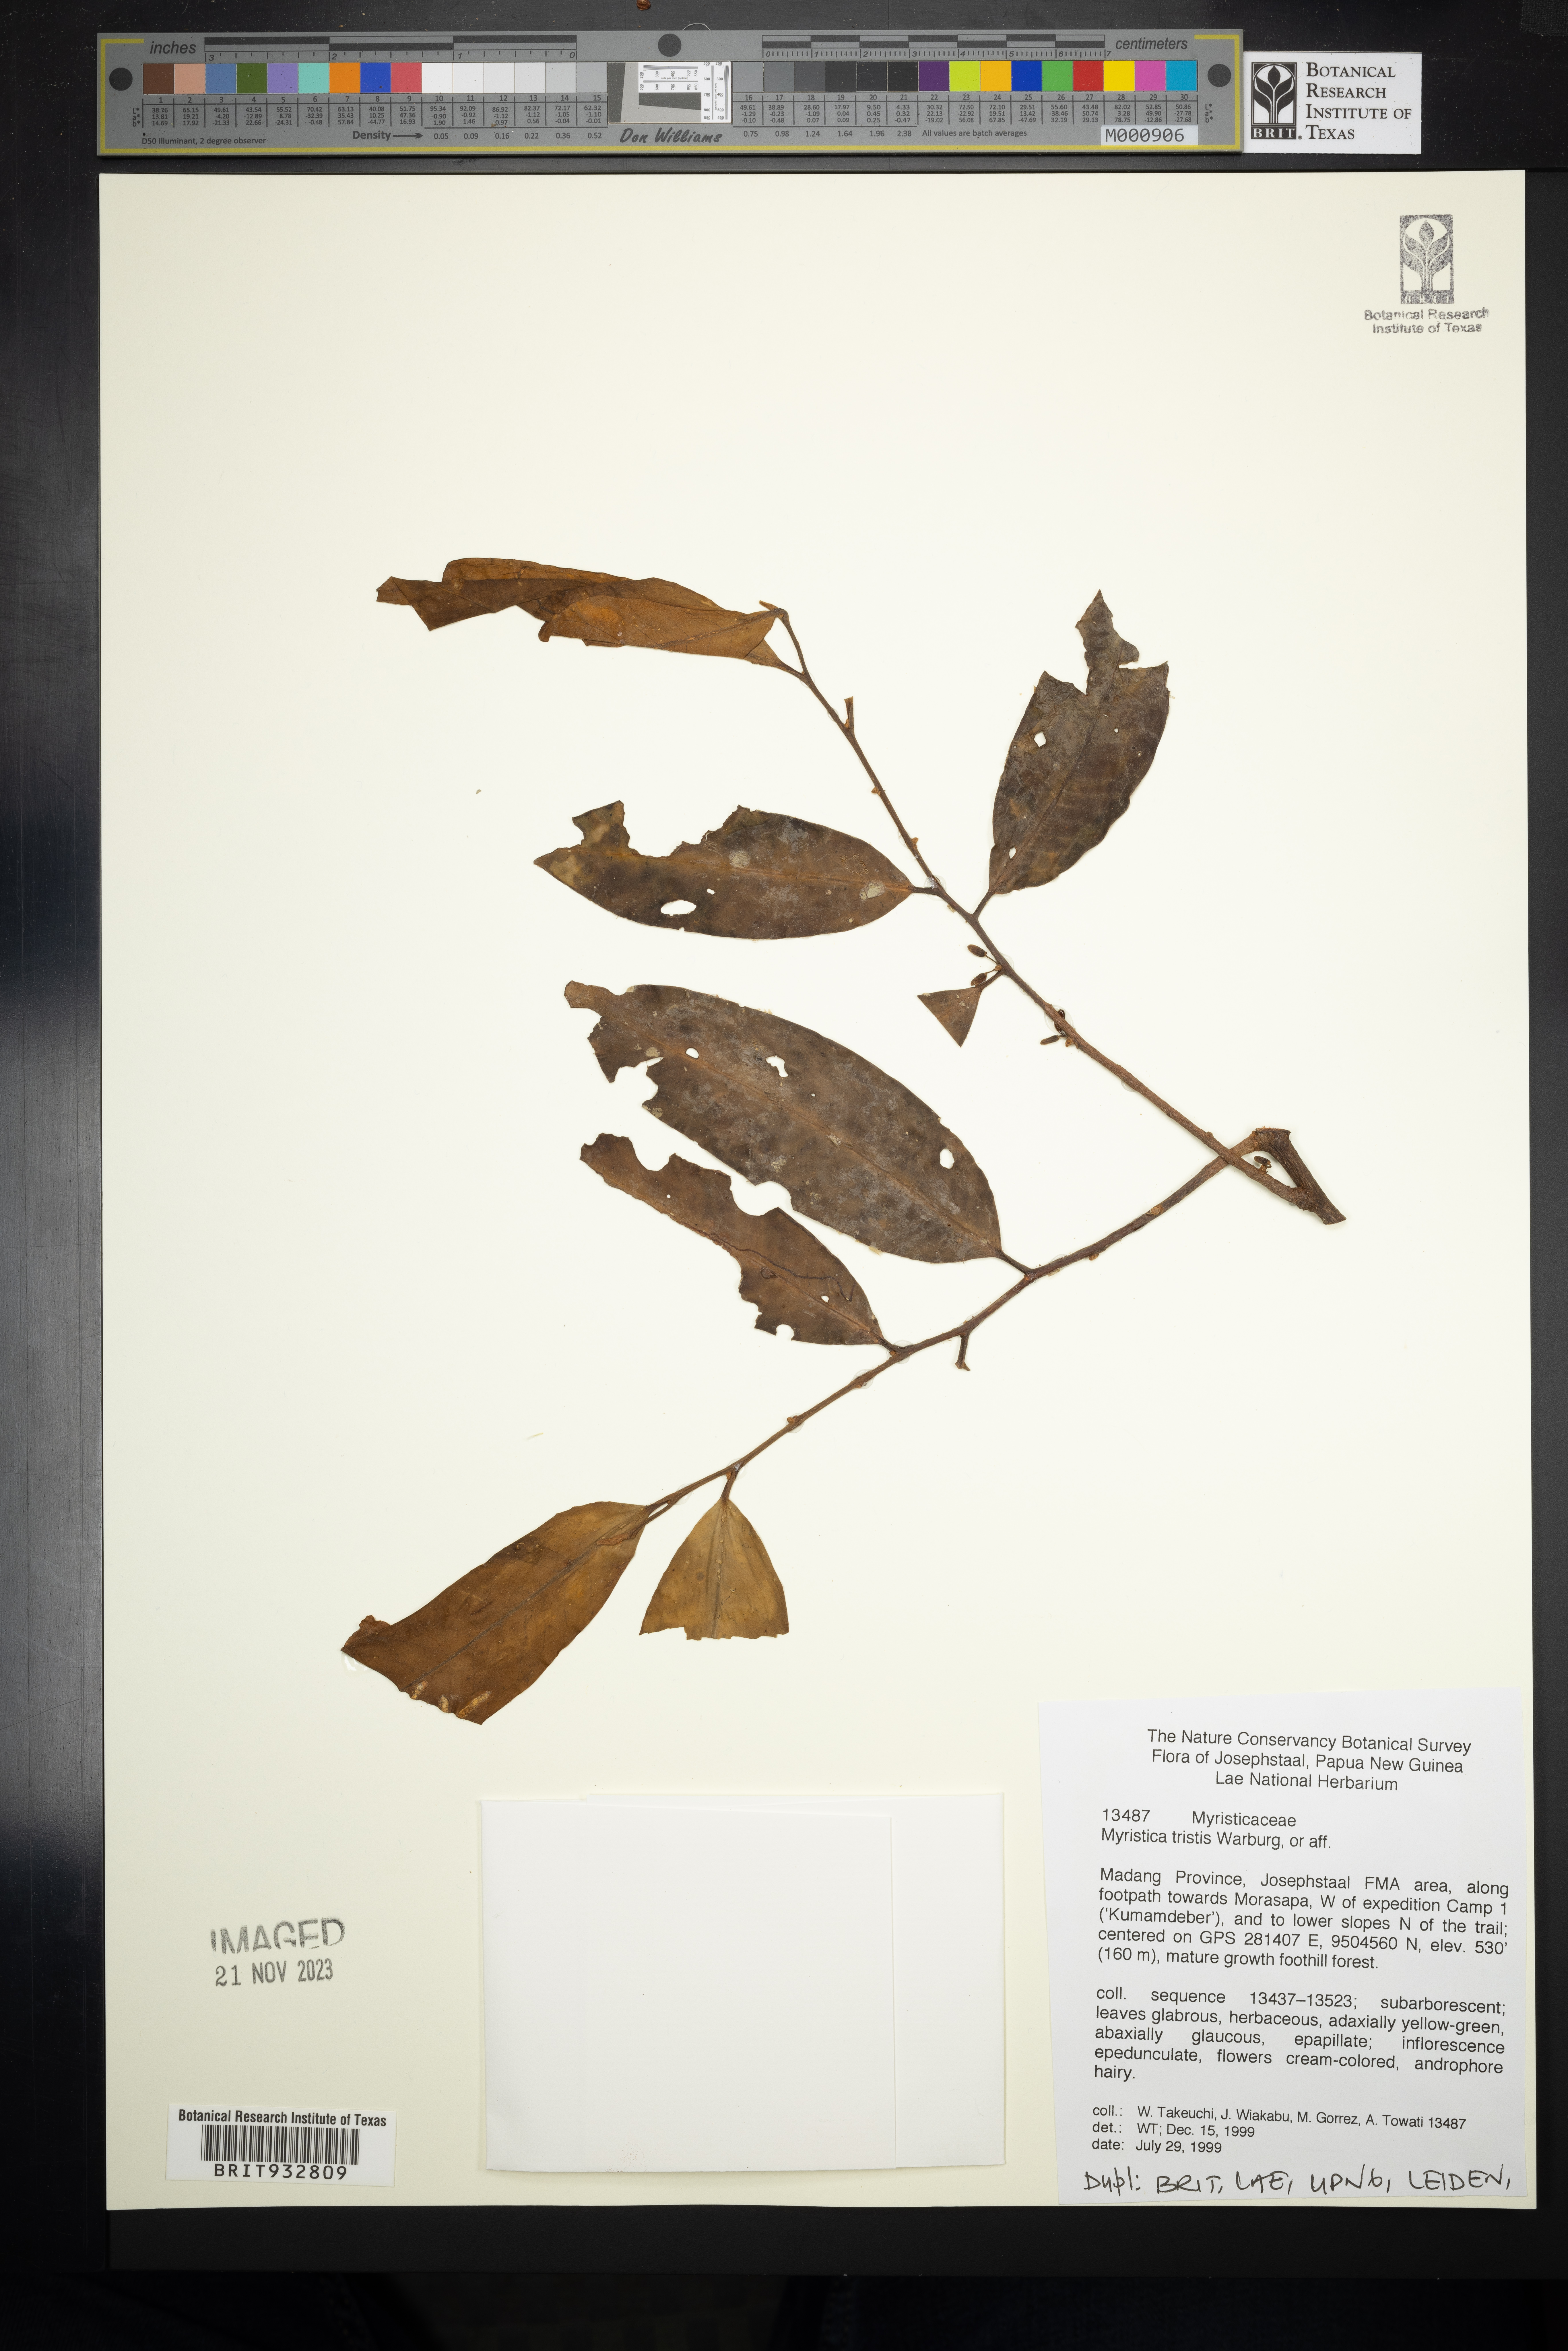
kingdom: Plantae
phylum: Tracheophyta
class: Magnoliopsida
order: Magnoliales
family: Myristicaceae
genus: Myristica
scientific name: Myristica
